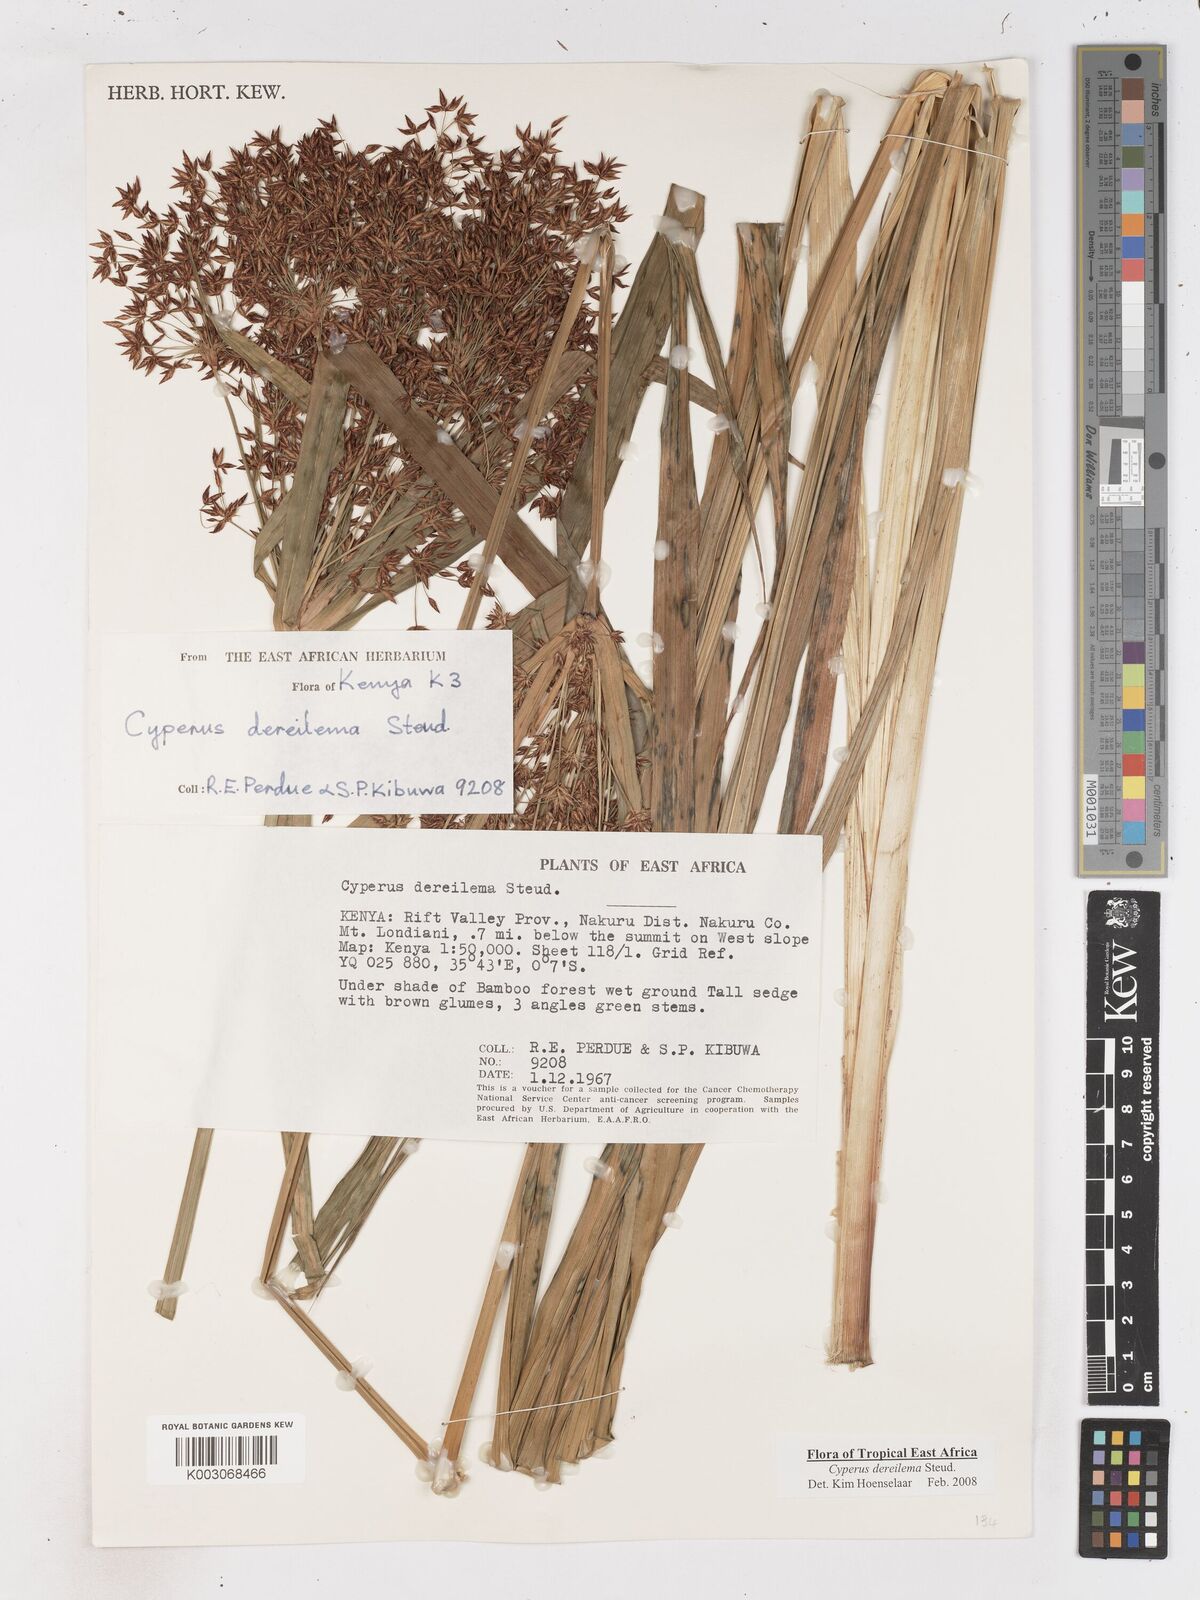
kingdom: Plantae
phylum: Tracheophyta
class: Liliopsida
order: Poales
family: Cyperaceae
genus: Cyperus
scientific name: Cyperus derreilema
